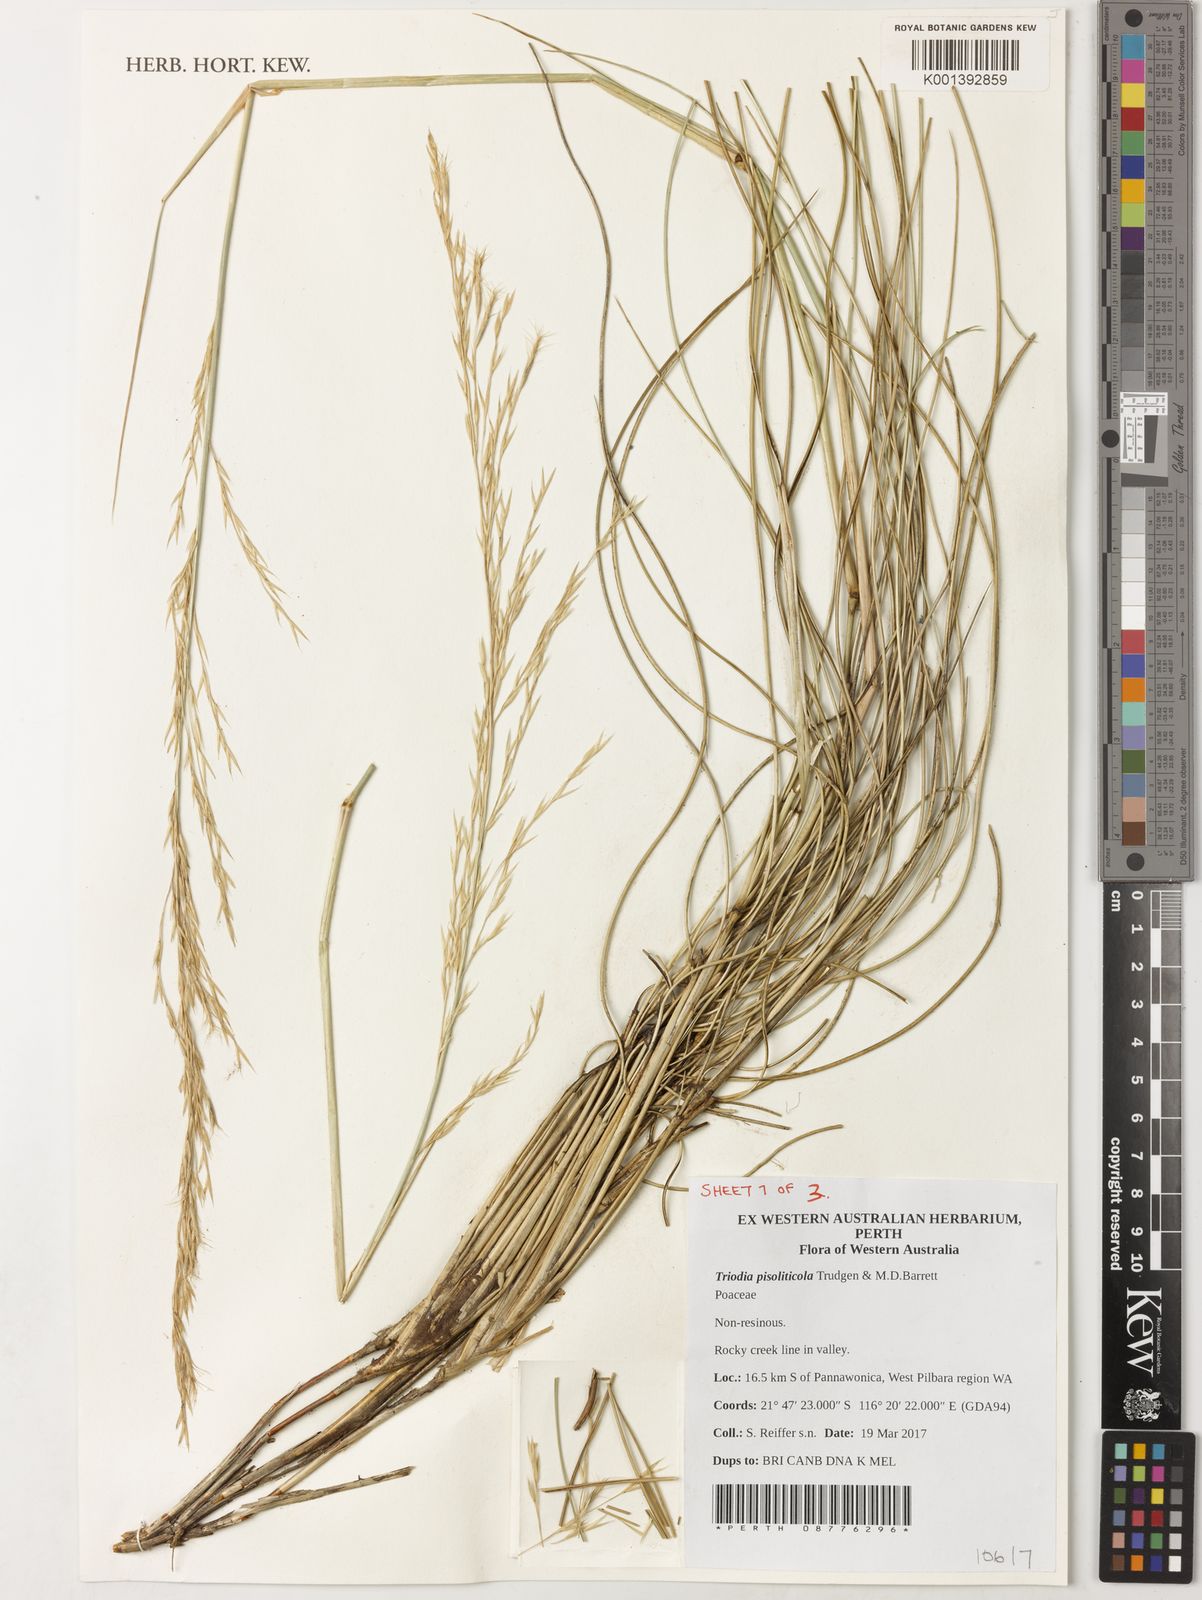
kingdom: Plantae
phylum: Tracheophyta
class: Liliopsida
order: Poales
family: Poaceae
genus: Triodia
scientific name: Triodia pisoliticola
